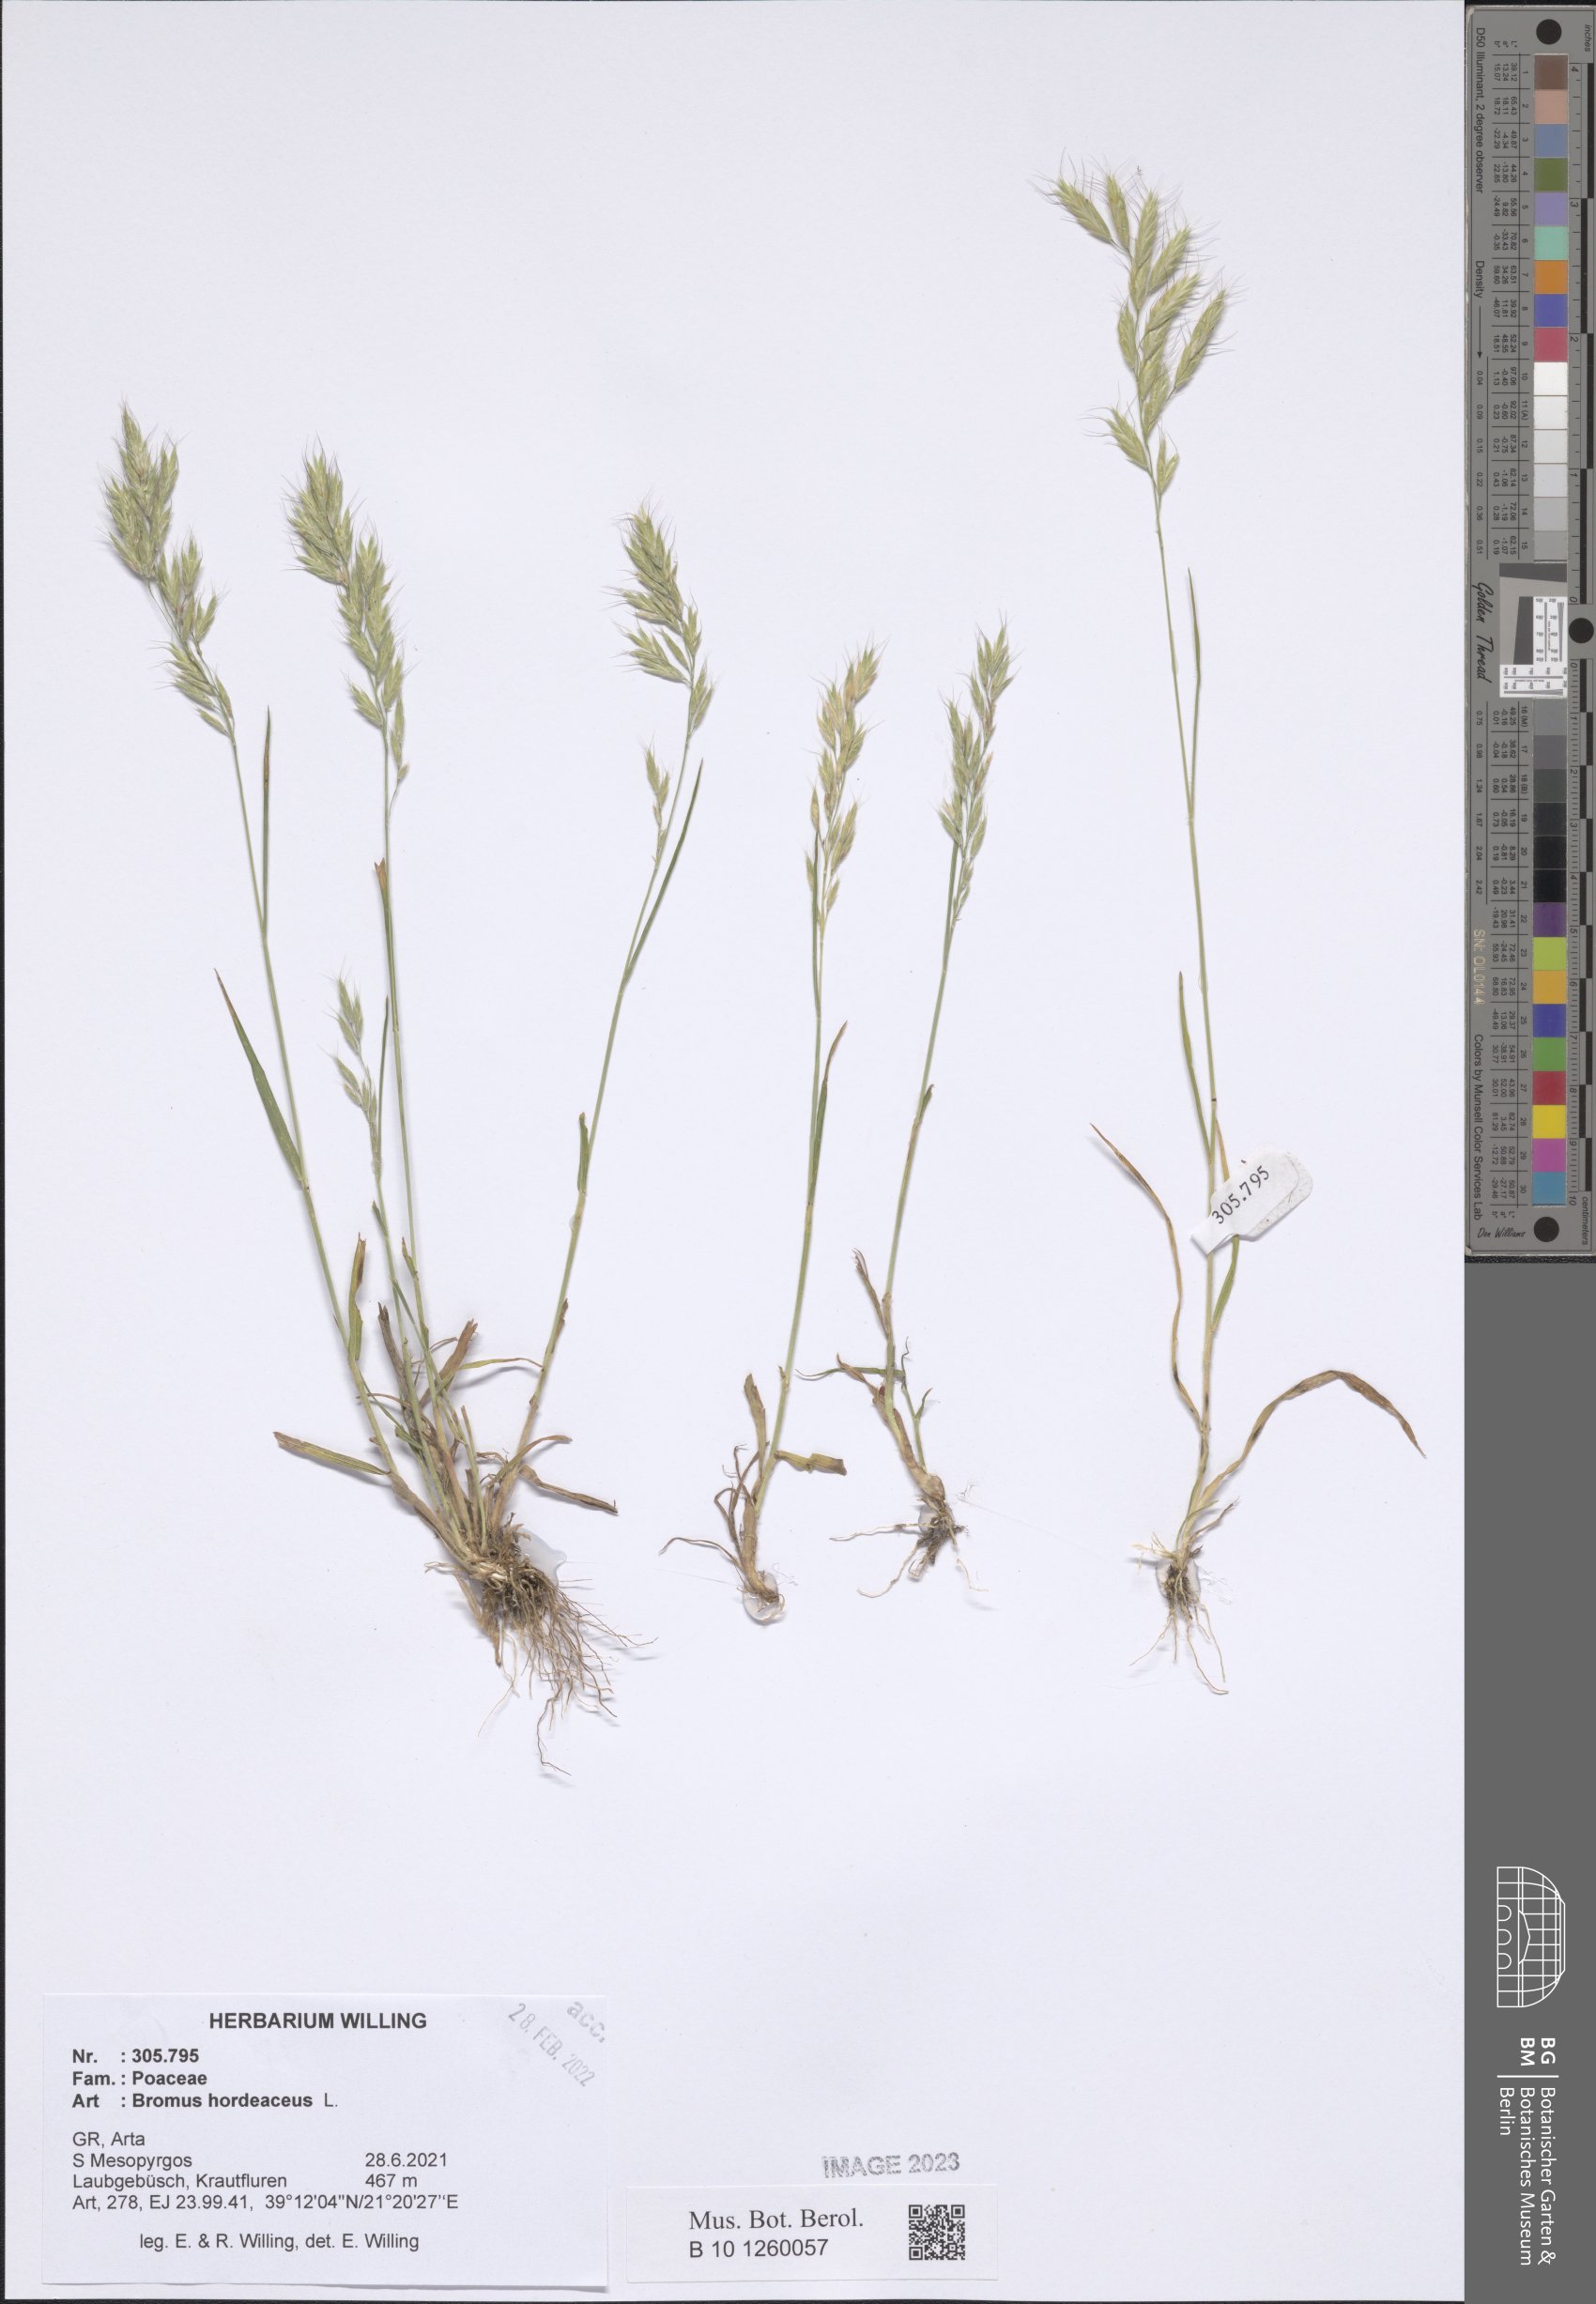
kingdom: Plantae
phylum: Tracheophyta
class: Liliopsida
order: Poales
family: Poaceae
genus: Bromus
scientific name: Bromus hordeaceus
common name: Soft brome
